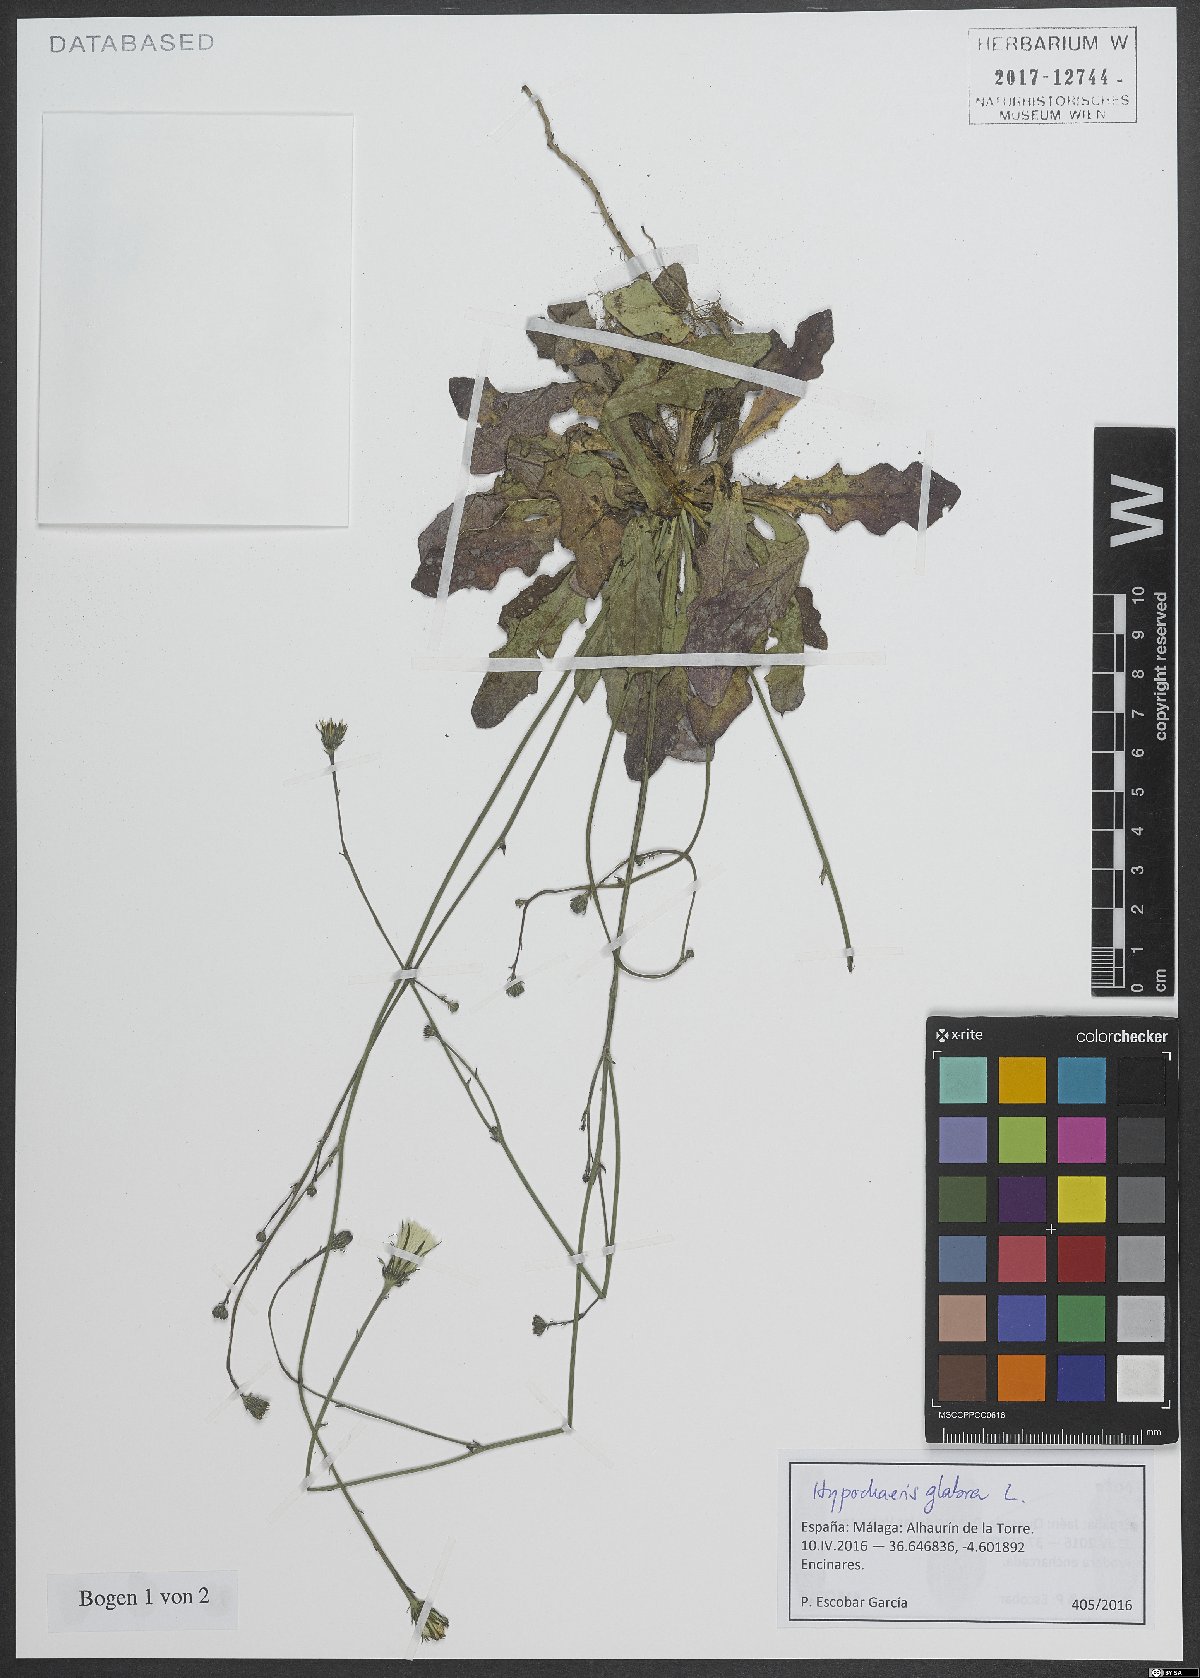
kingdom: Plantae
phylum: Tracheophyta
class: Magnoliopsida
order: Asterales
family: Asteraceae
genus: Hypochaeris
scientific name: Hypochaeris glabra
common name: Smooth catsear
